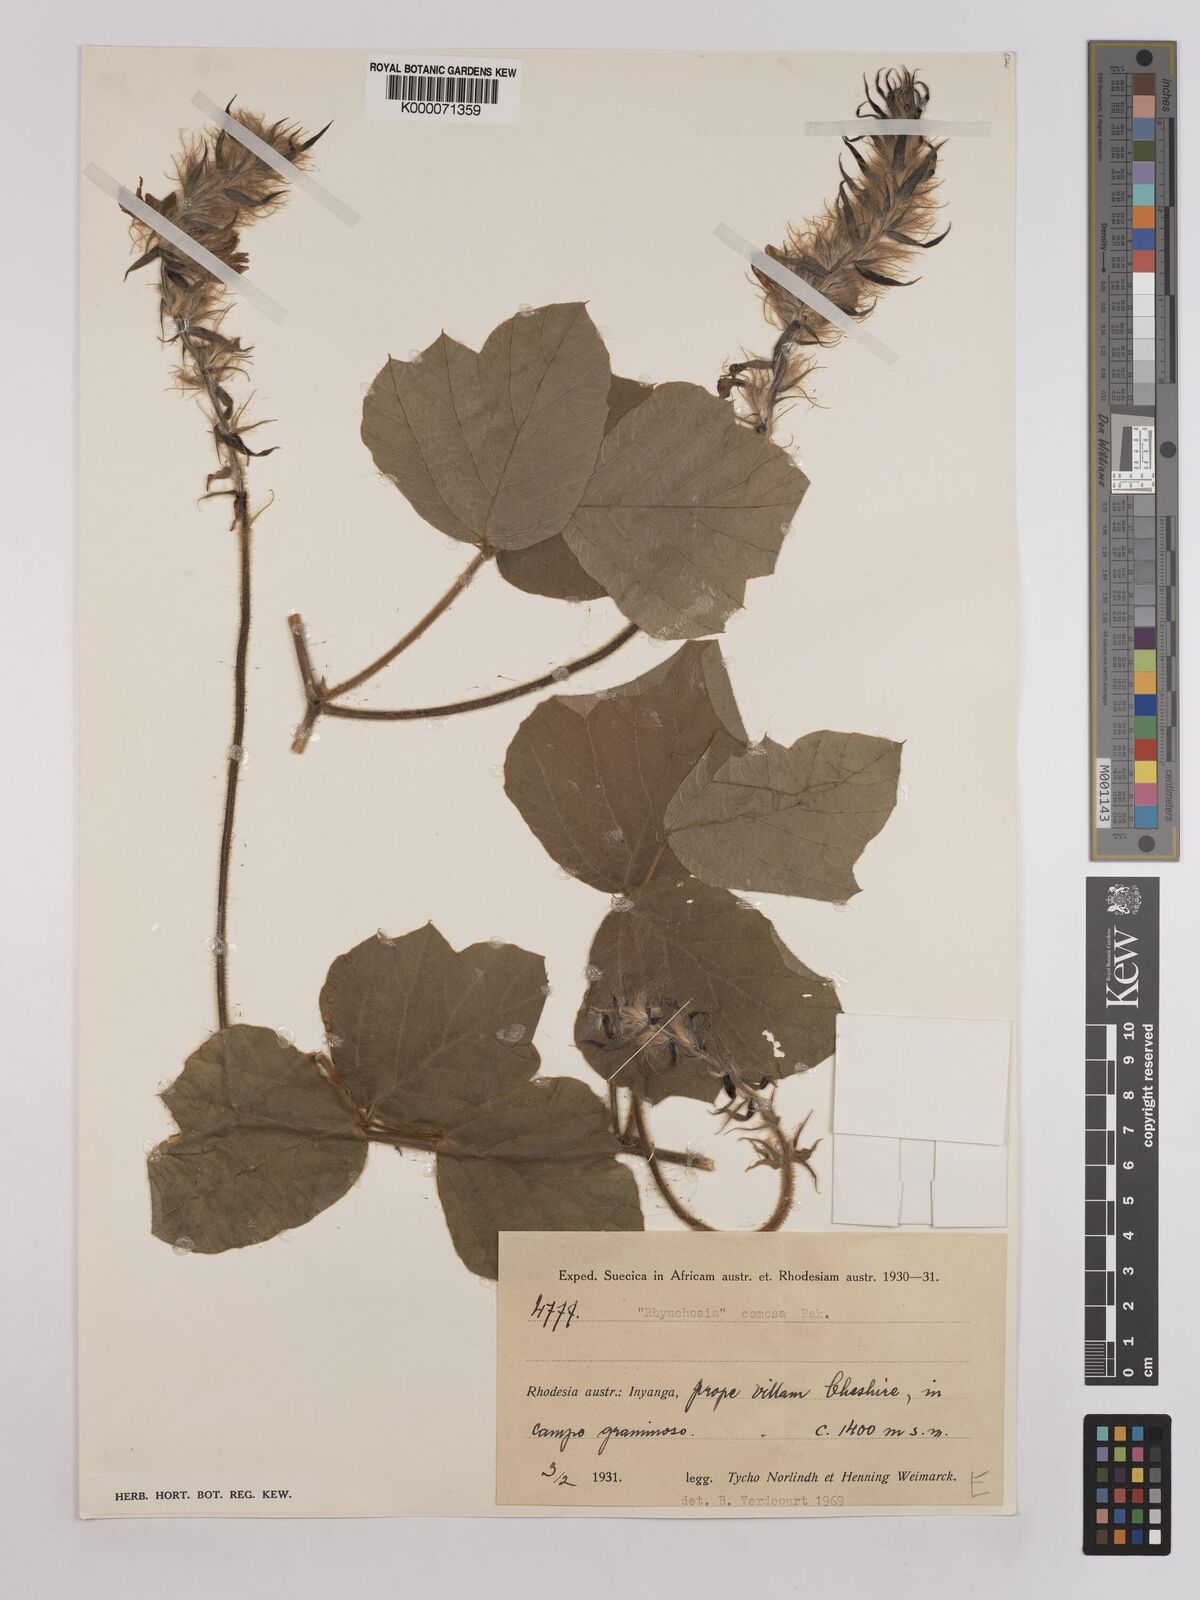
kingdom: Plantae
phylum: Tracheophyta
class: Magnoliopsida
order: Fabales
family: Fabaceae
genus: Pseudeminia
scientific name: Pseudeminia comosa
